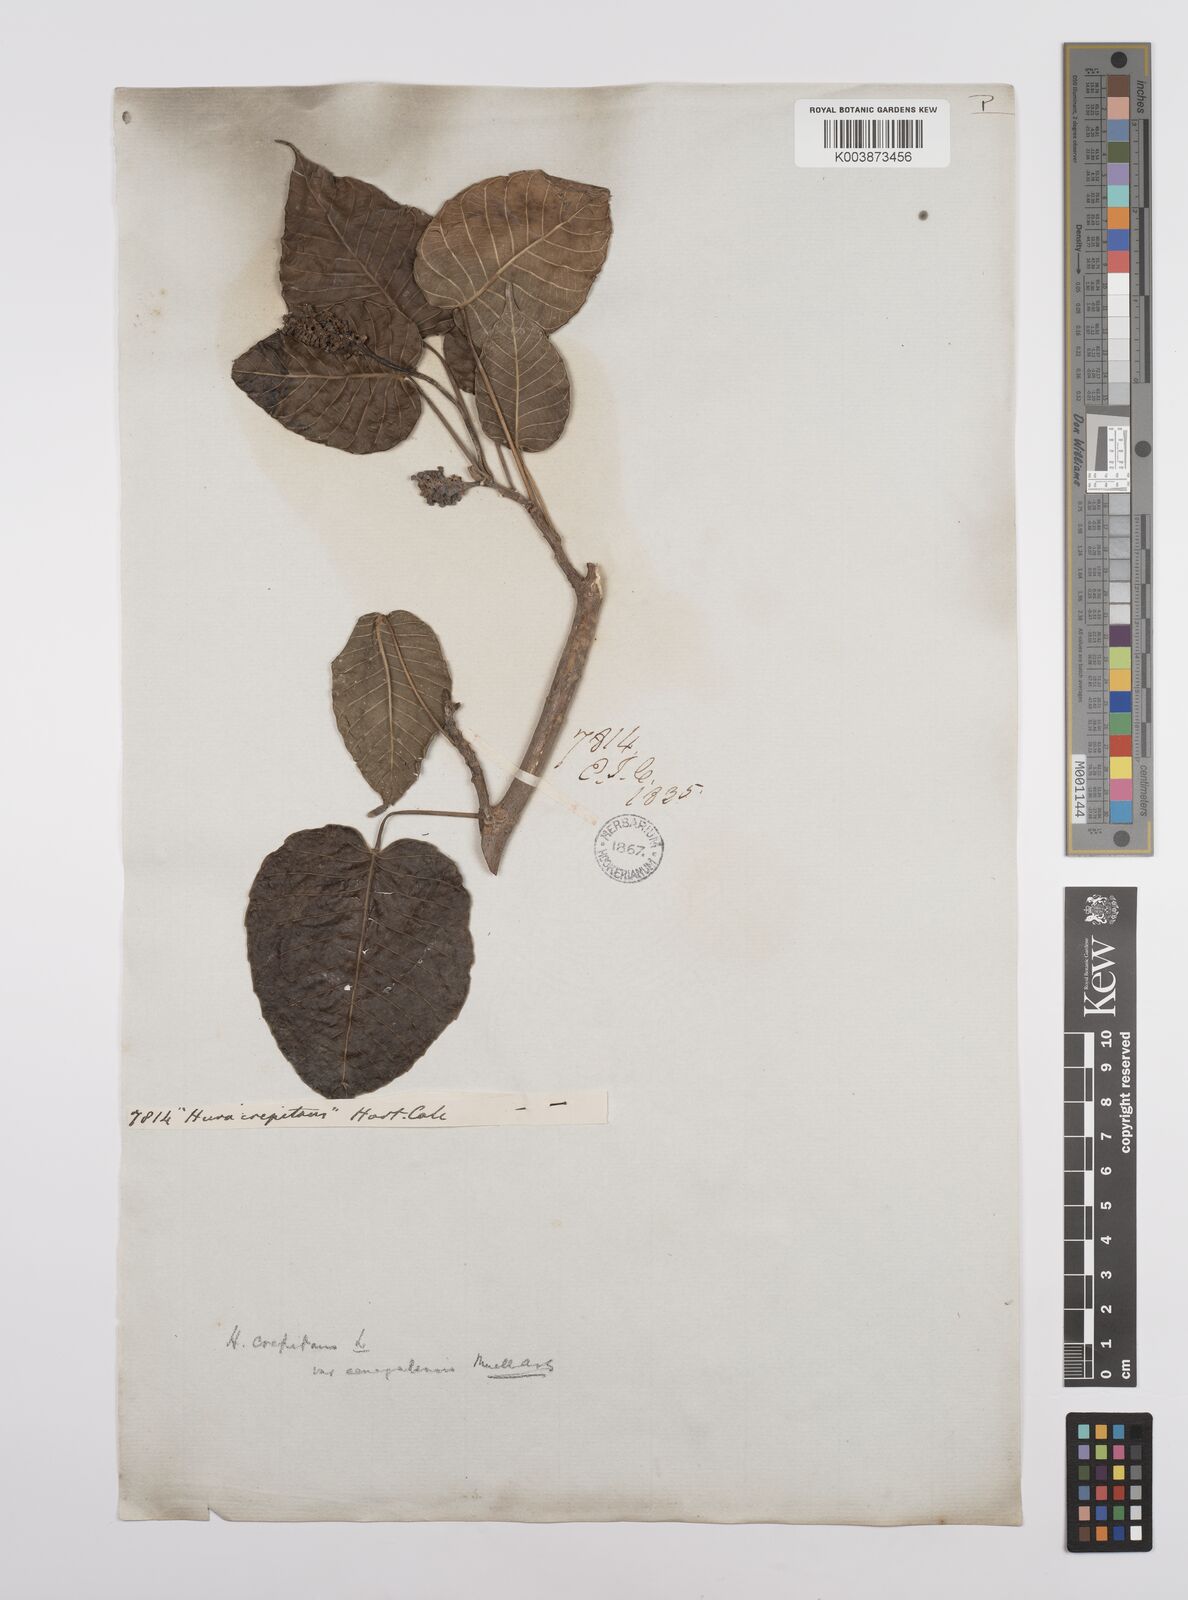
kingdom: Plantae
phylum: Tracheophyta
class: Magnoliopsida
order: Malpighiales
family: Euphorbiaceae
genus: Hura
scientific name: Hura crepitans
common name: Sandboxtree
